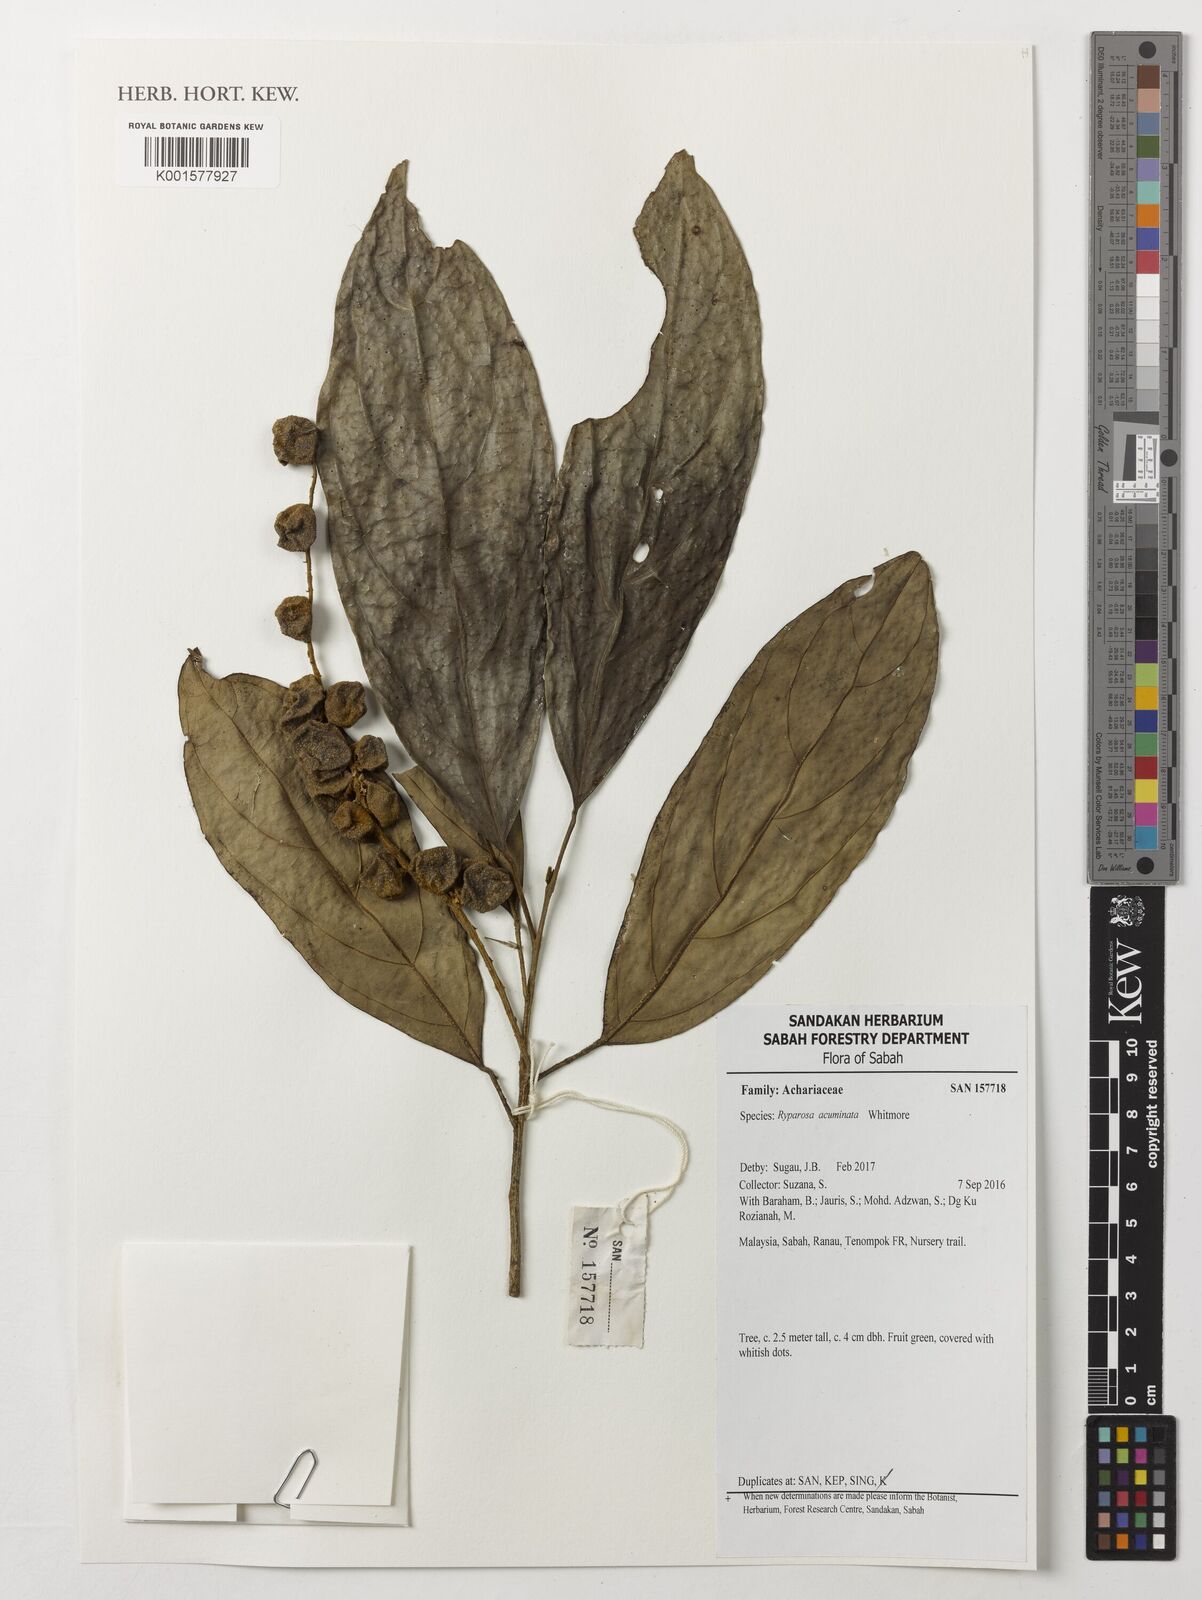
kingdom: Plantae
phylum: Tracheophyta
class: Magnoliopsida
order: Malpighiales
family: Achariaceae
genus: Ryparosa
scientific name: Ryparosa acuminata
